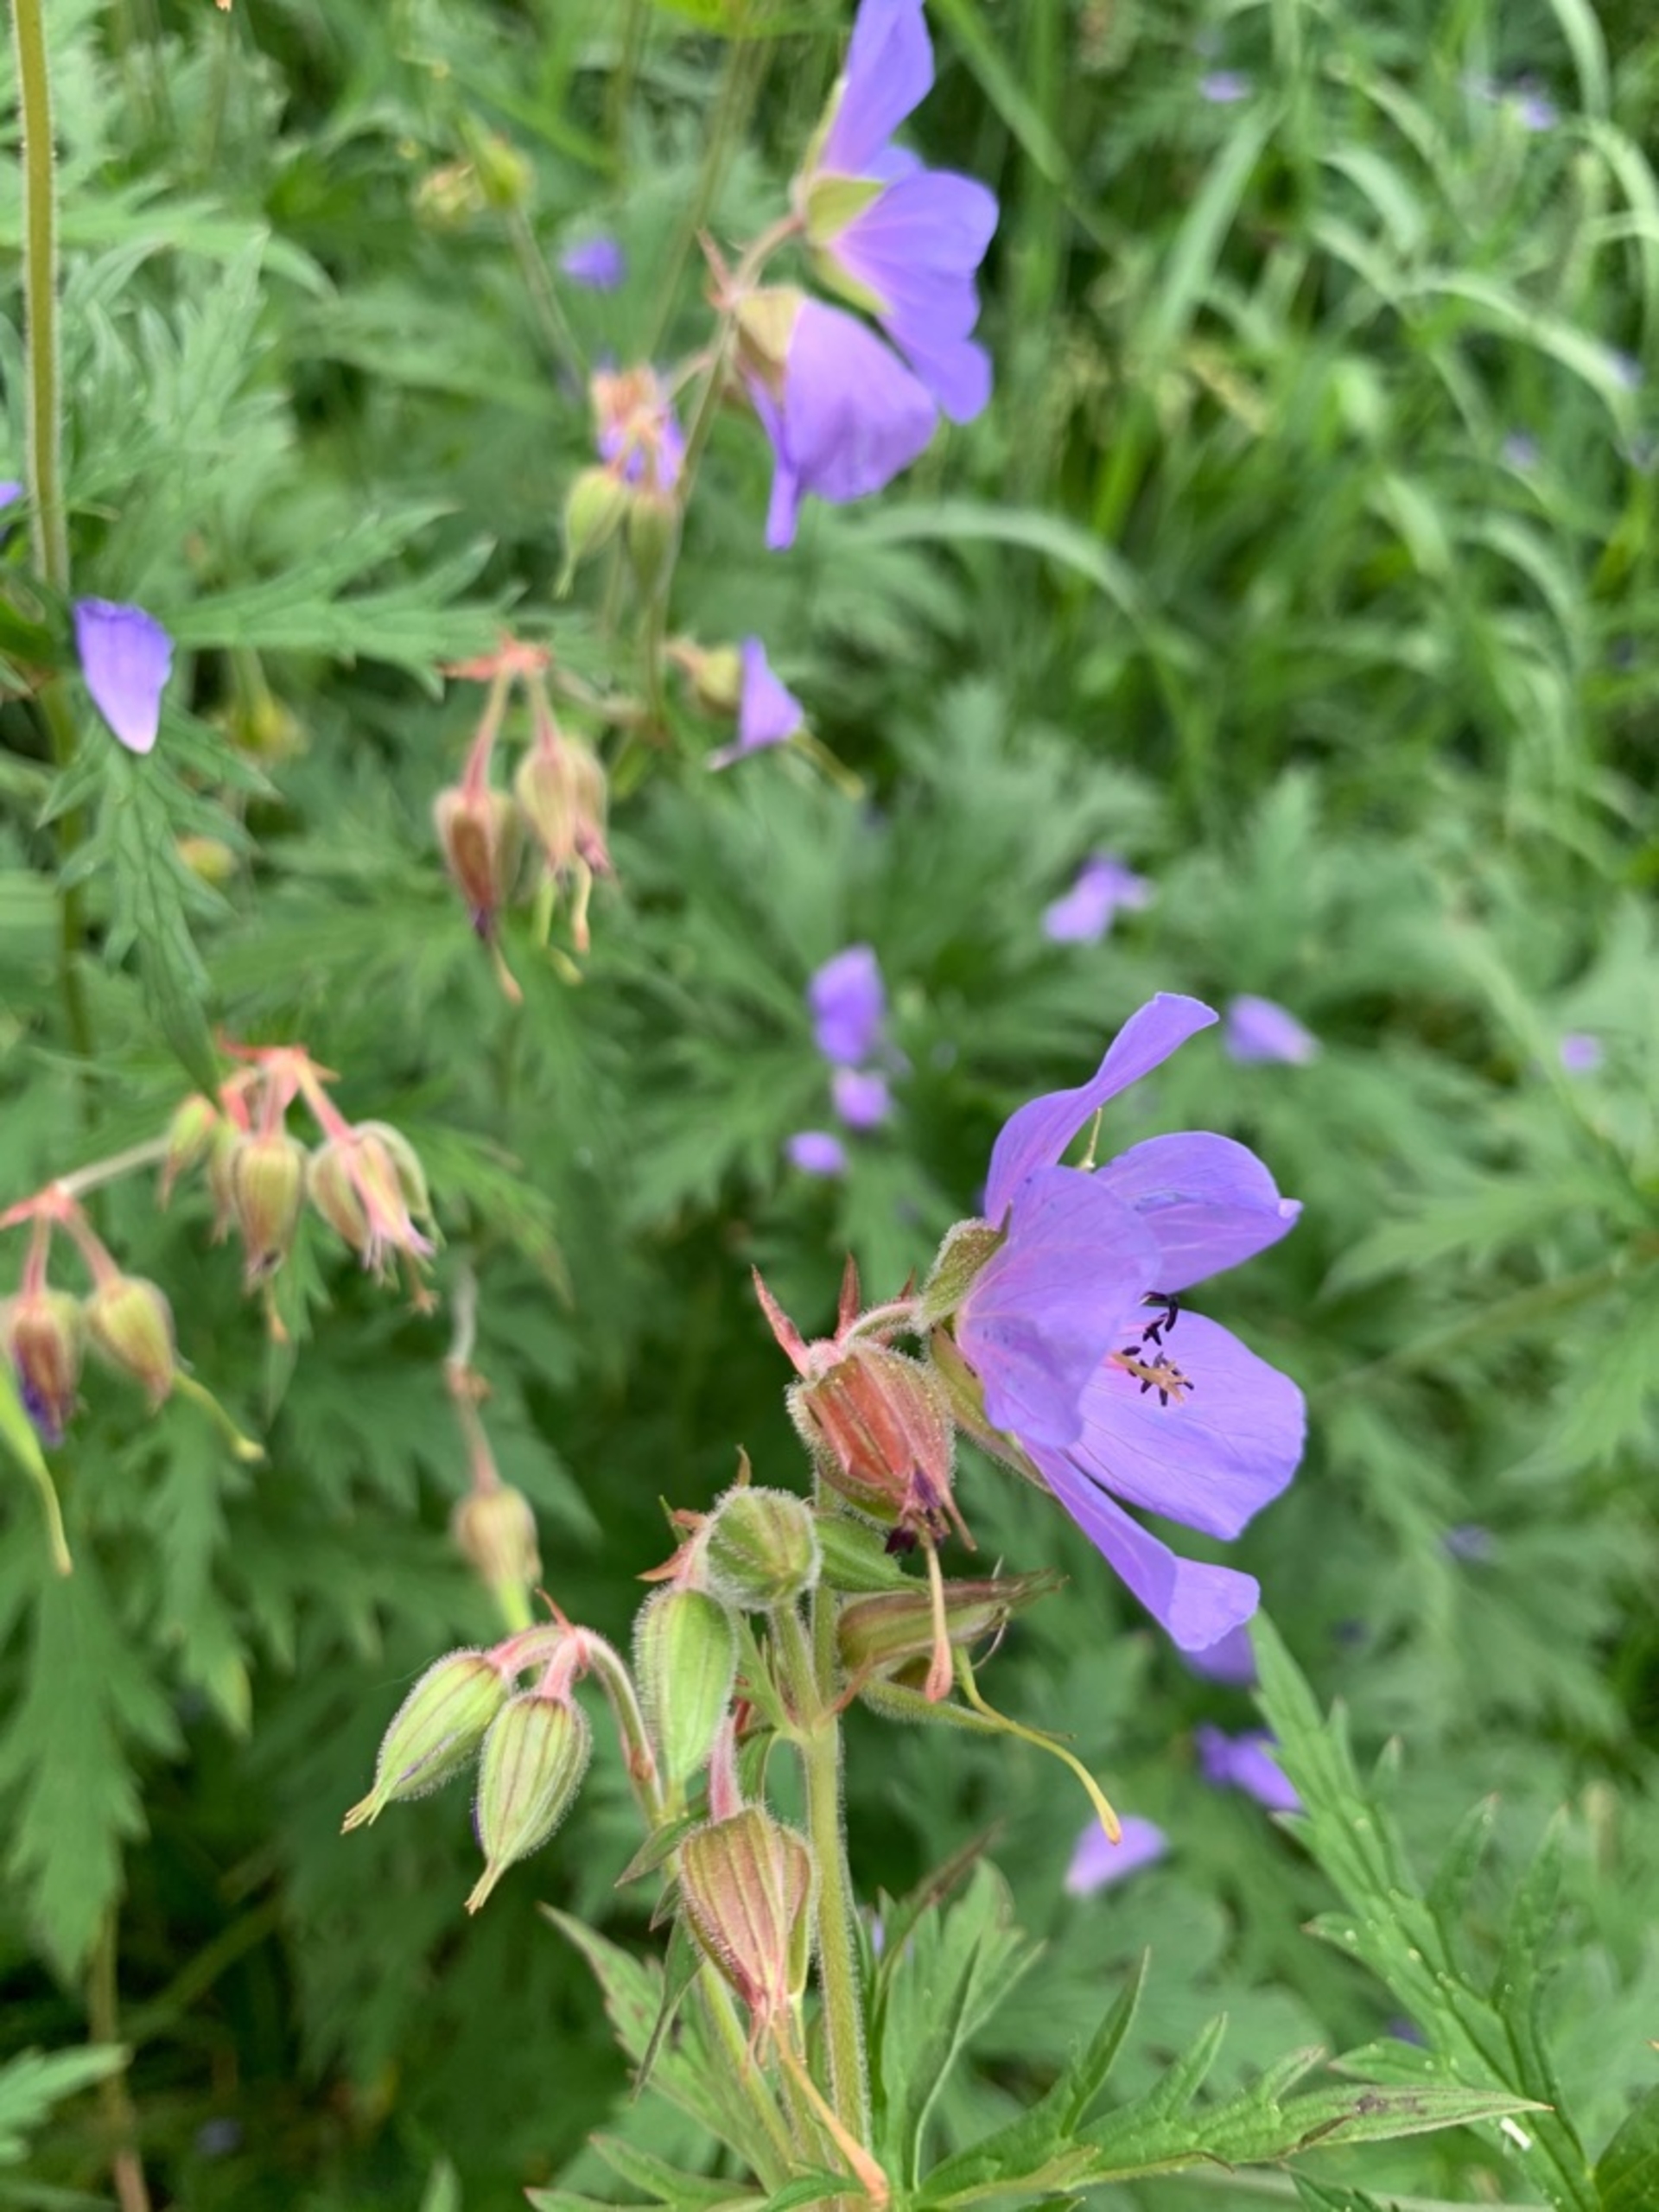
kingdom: Plantae
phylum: Tracheophyta
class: Magnoliopsida
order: Geraniales
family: Geraniaceae
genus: Geranium
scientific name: Geranium pratense
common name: Eng-storkenæb
